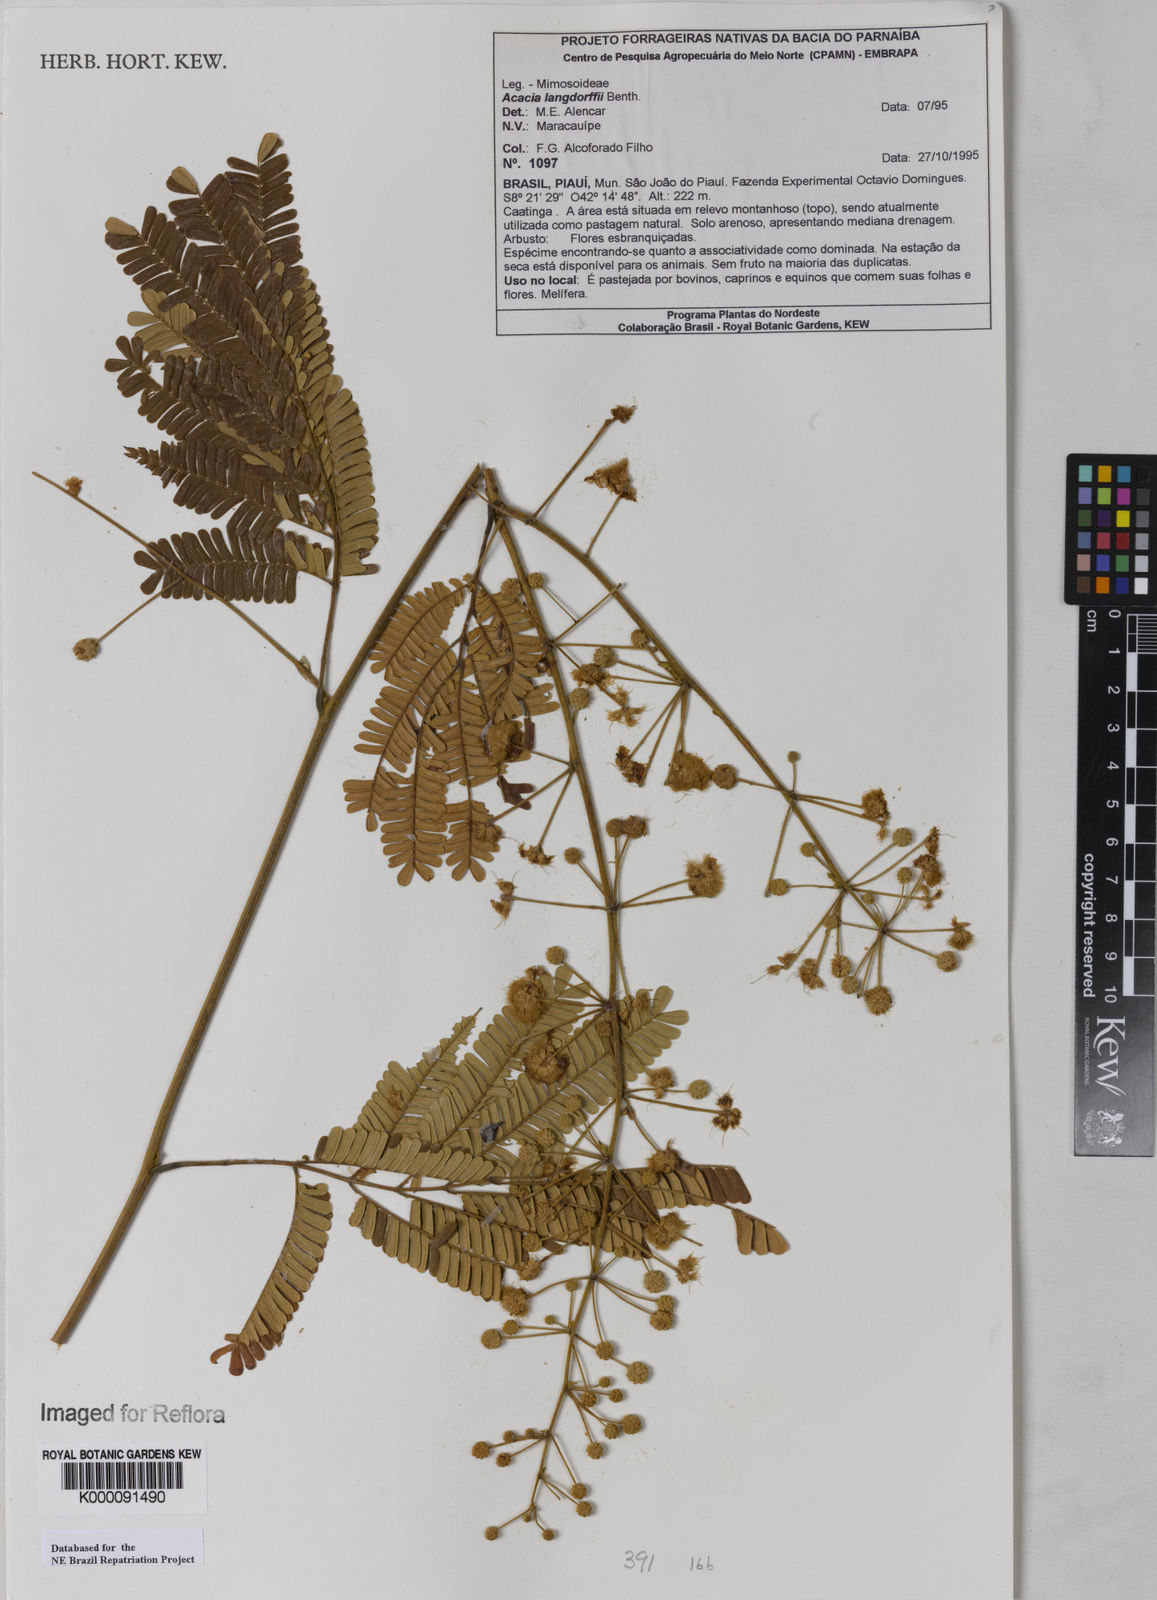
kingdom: Plantae
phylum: Tracheophyta
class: Magnoliopsida
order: Fabales
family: Fabaceae
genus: Senegalia
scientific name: Senegalia langsdorffii
